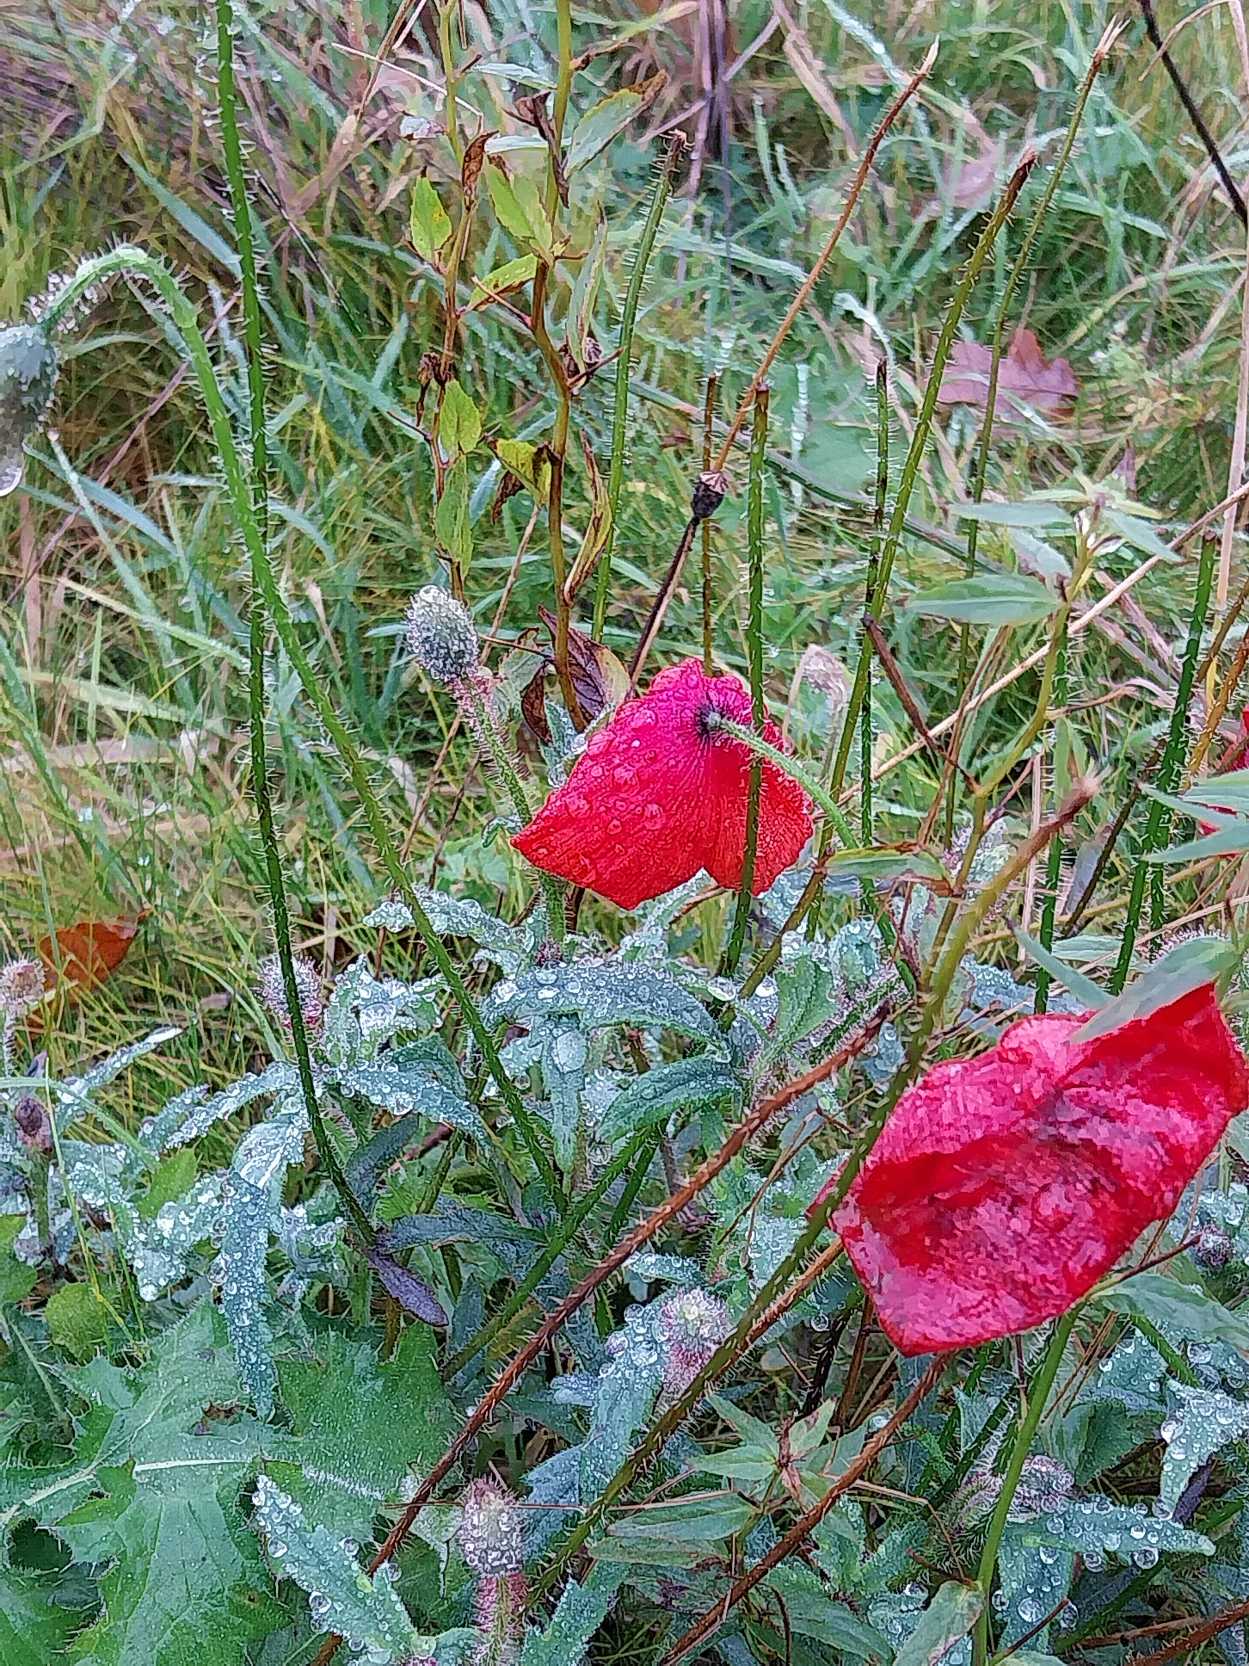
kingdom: Plantae
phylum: Tracheophyta
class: Magnoliopsida
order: Ranunculales
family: Papaveraceae
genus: Papaver
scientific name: Papaver rhoeas
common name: Korn-valmue
